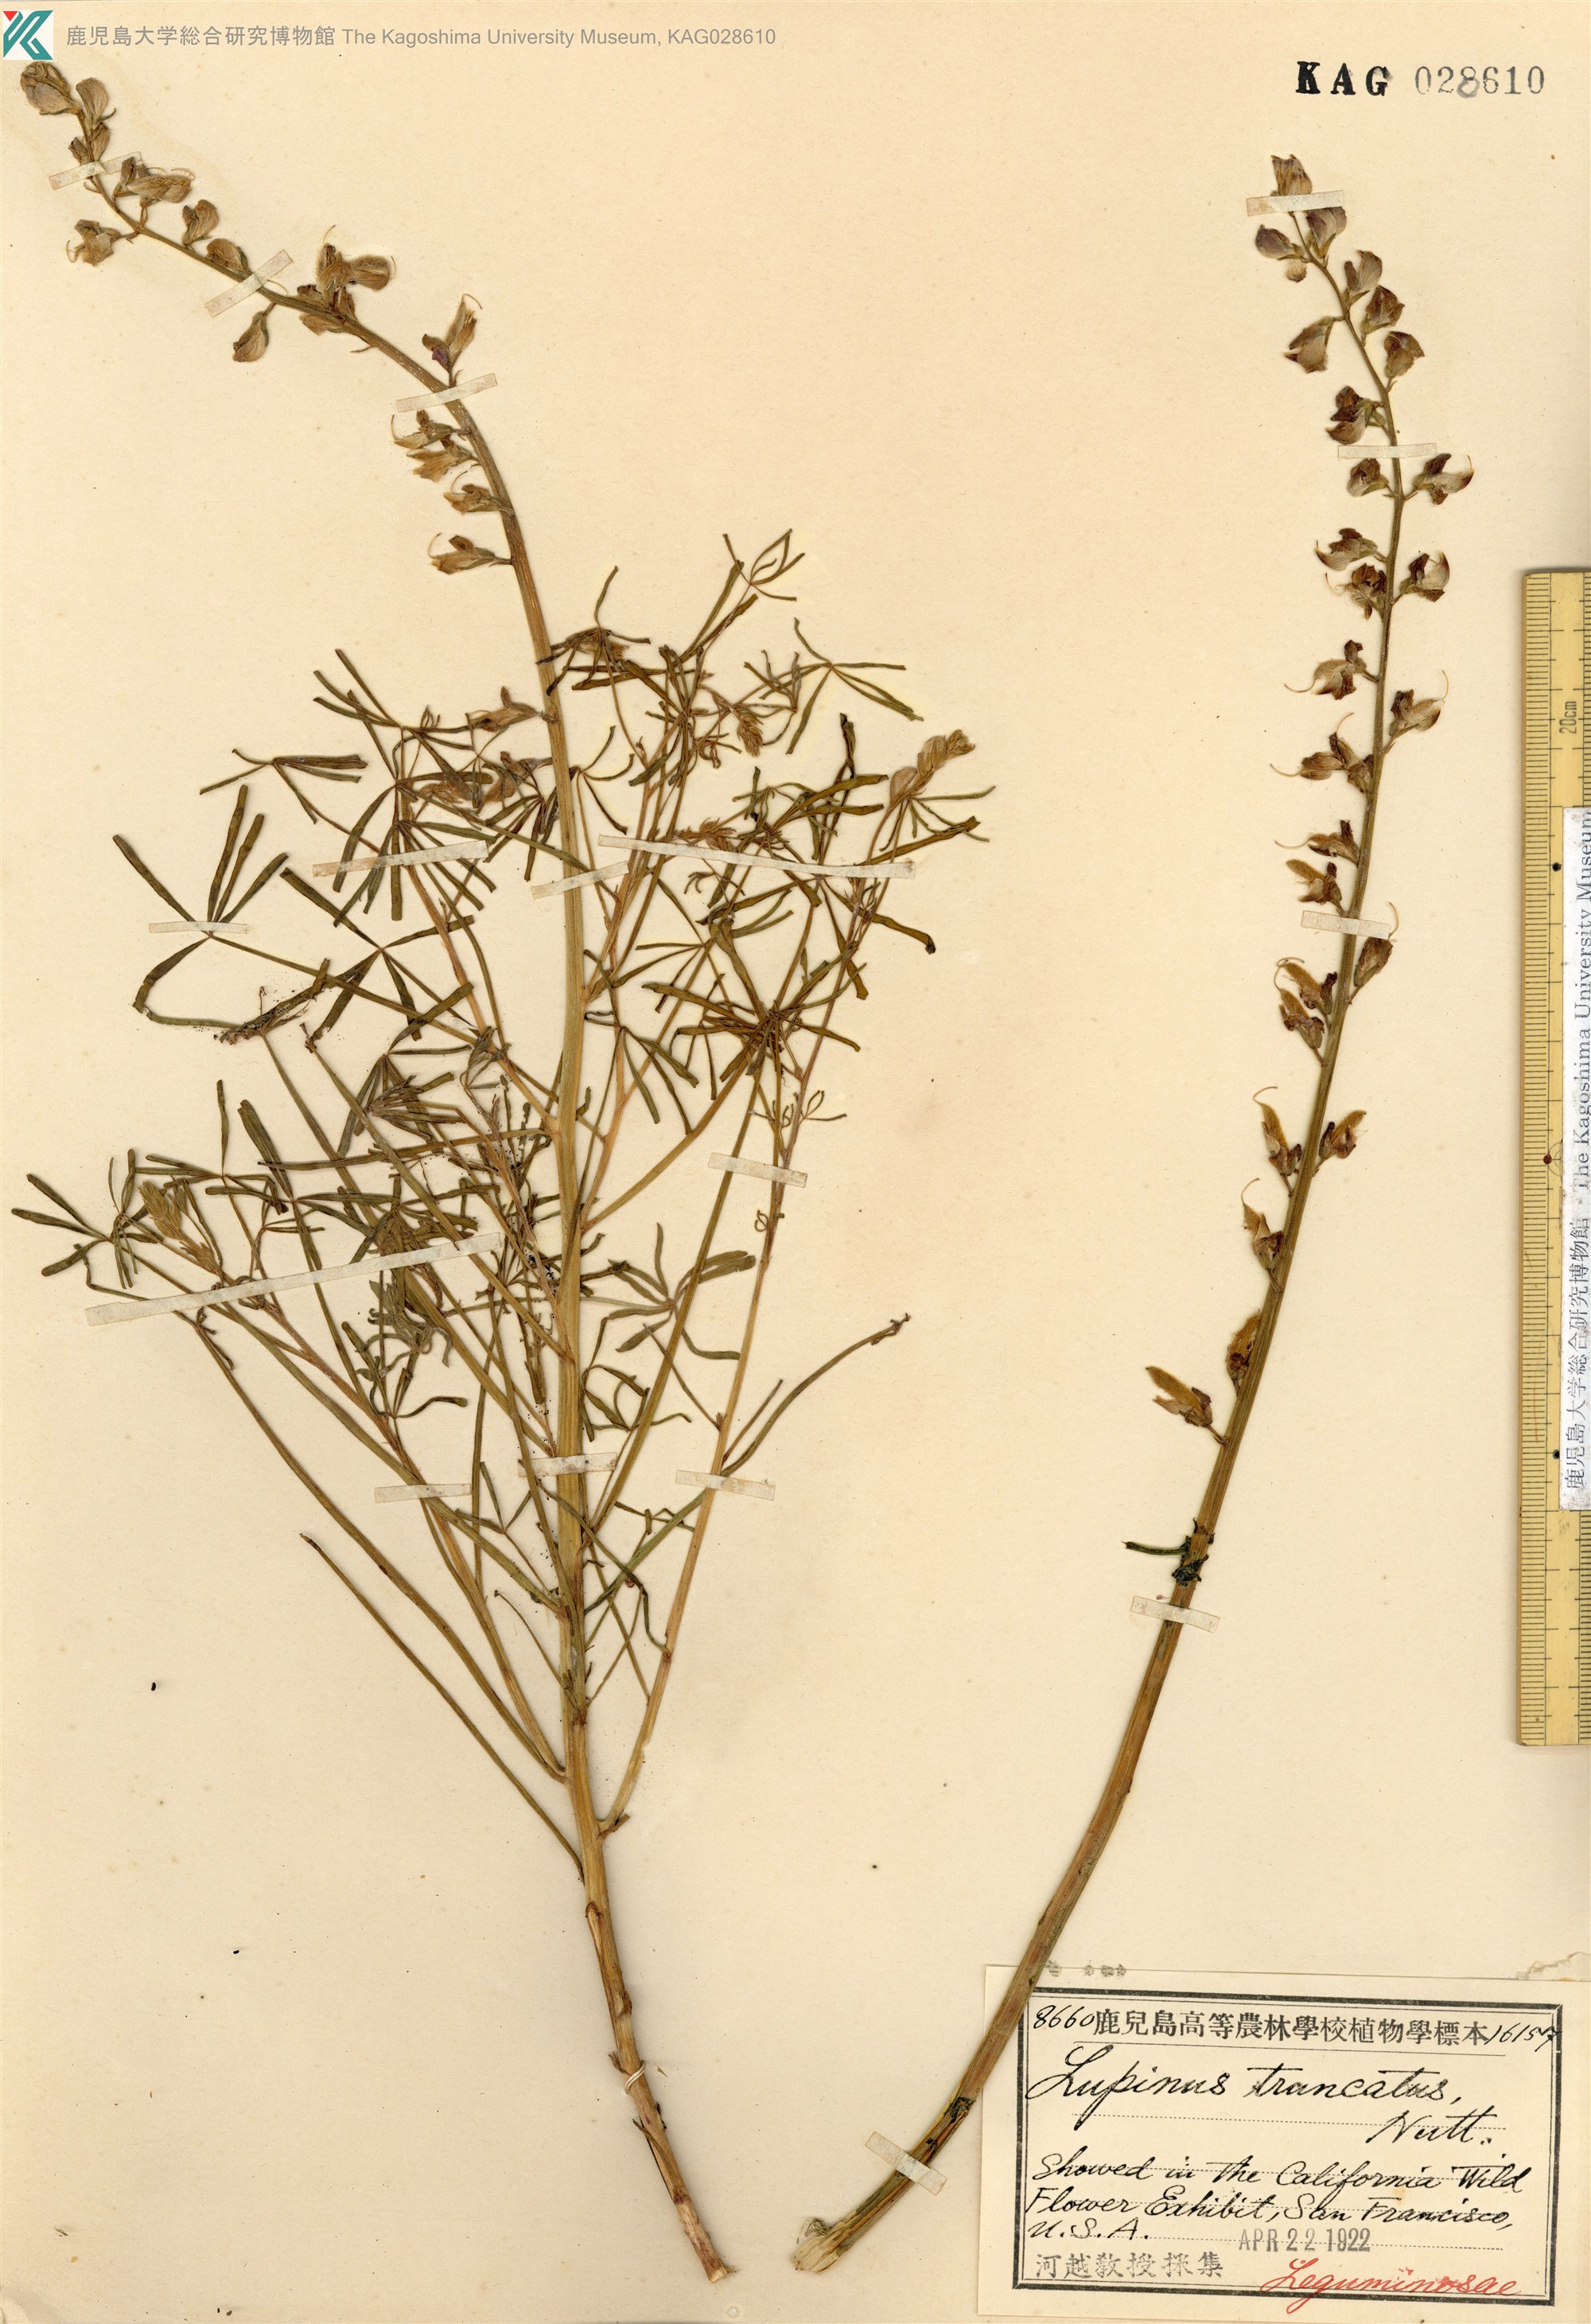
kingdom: Plantae
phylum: Tracheophyta
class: Magnoliopsida
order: Fabales
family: Fabaceae
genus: Lupinus
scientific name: Lupinus truncatus
